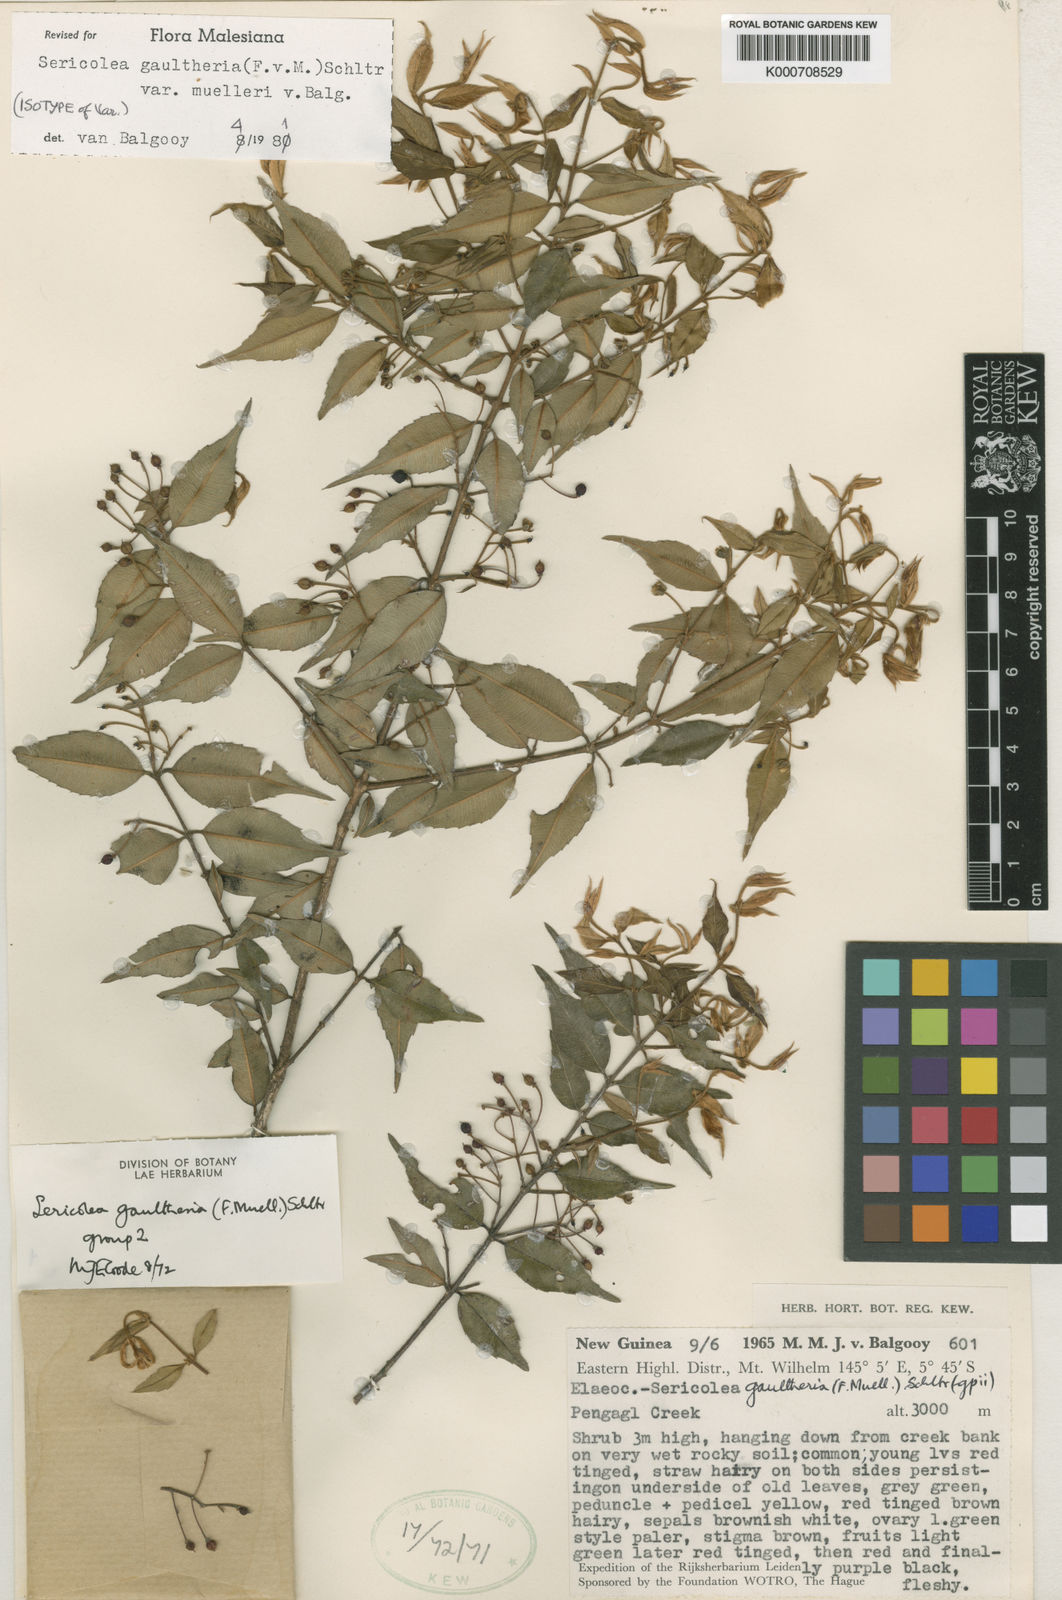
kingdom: Plantae
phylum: Tracheophyta
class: Magnoliopsida
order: Oxalidales
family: Elaeocarpaceae
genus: Sericolea
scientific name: Sericolea gaultheria
